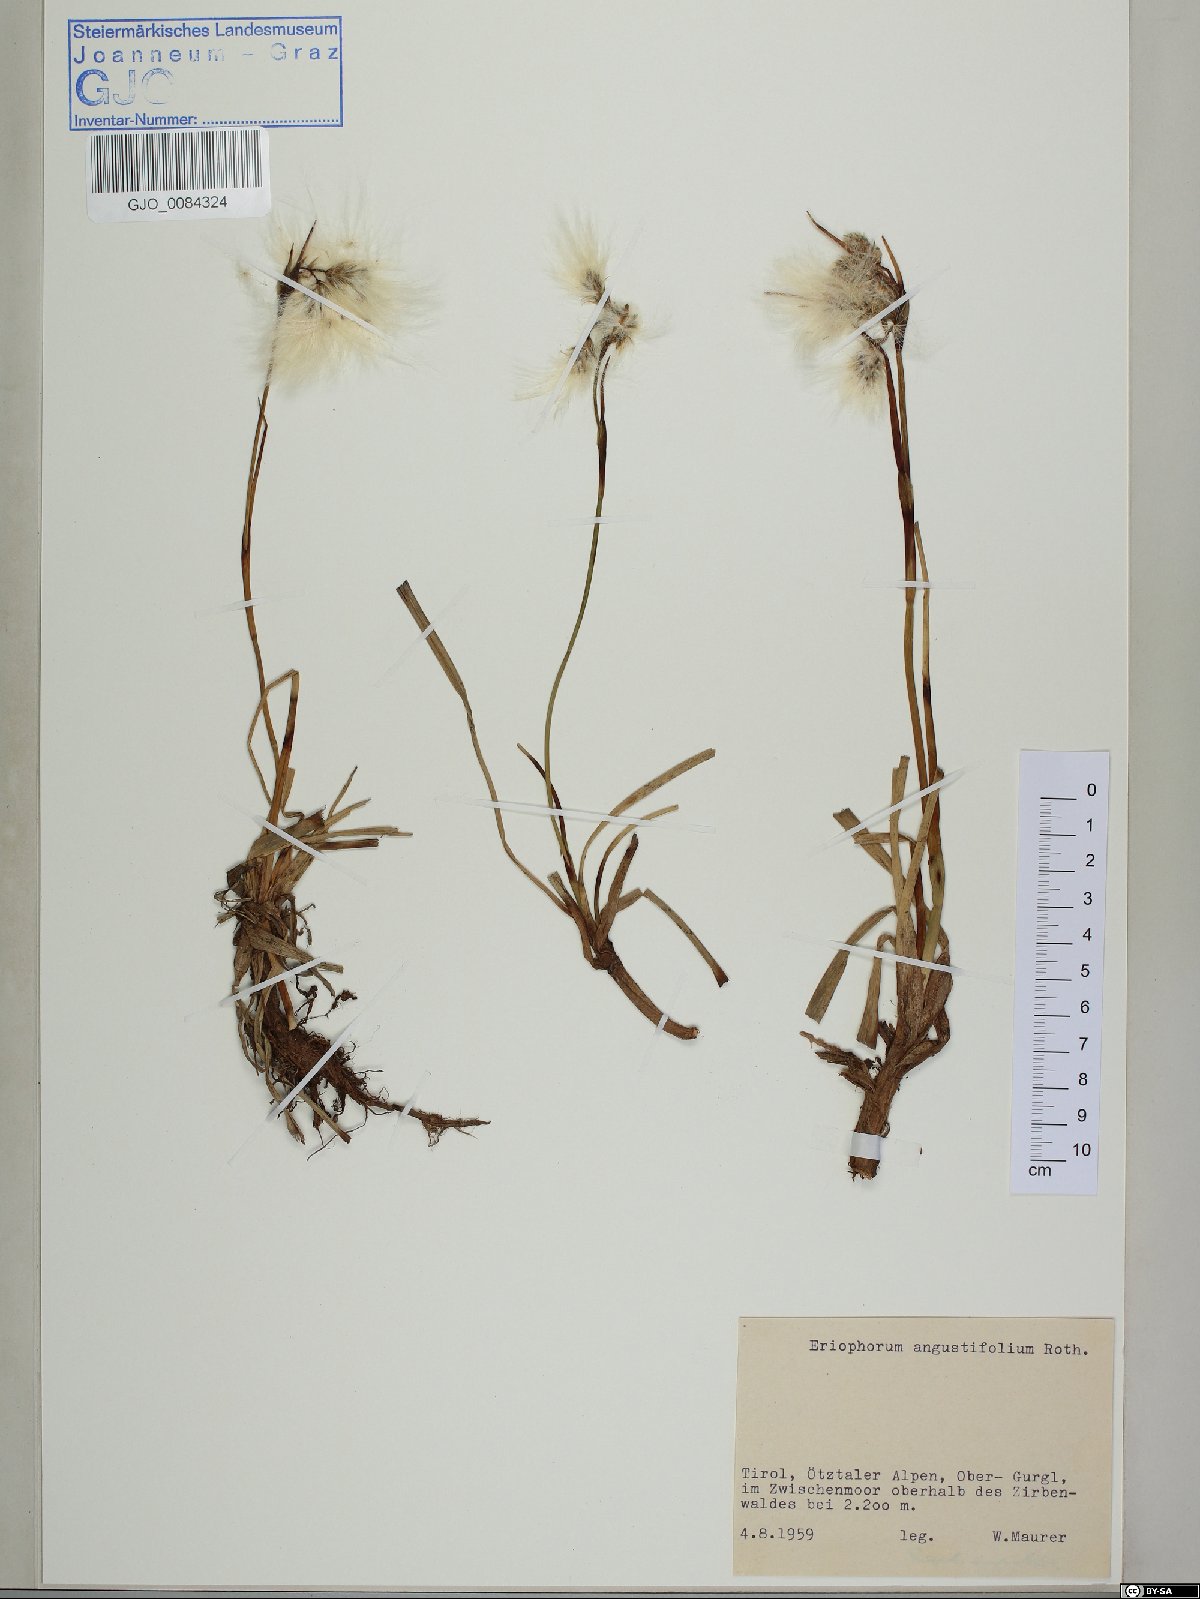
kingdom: Plantae
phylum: Tracheophyta
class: Liliopsida
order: Poales
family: Cyperaceae
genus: Eriophorum
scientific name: Eriophorum angustifolium
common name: Common cottongrass
